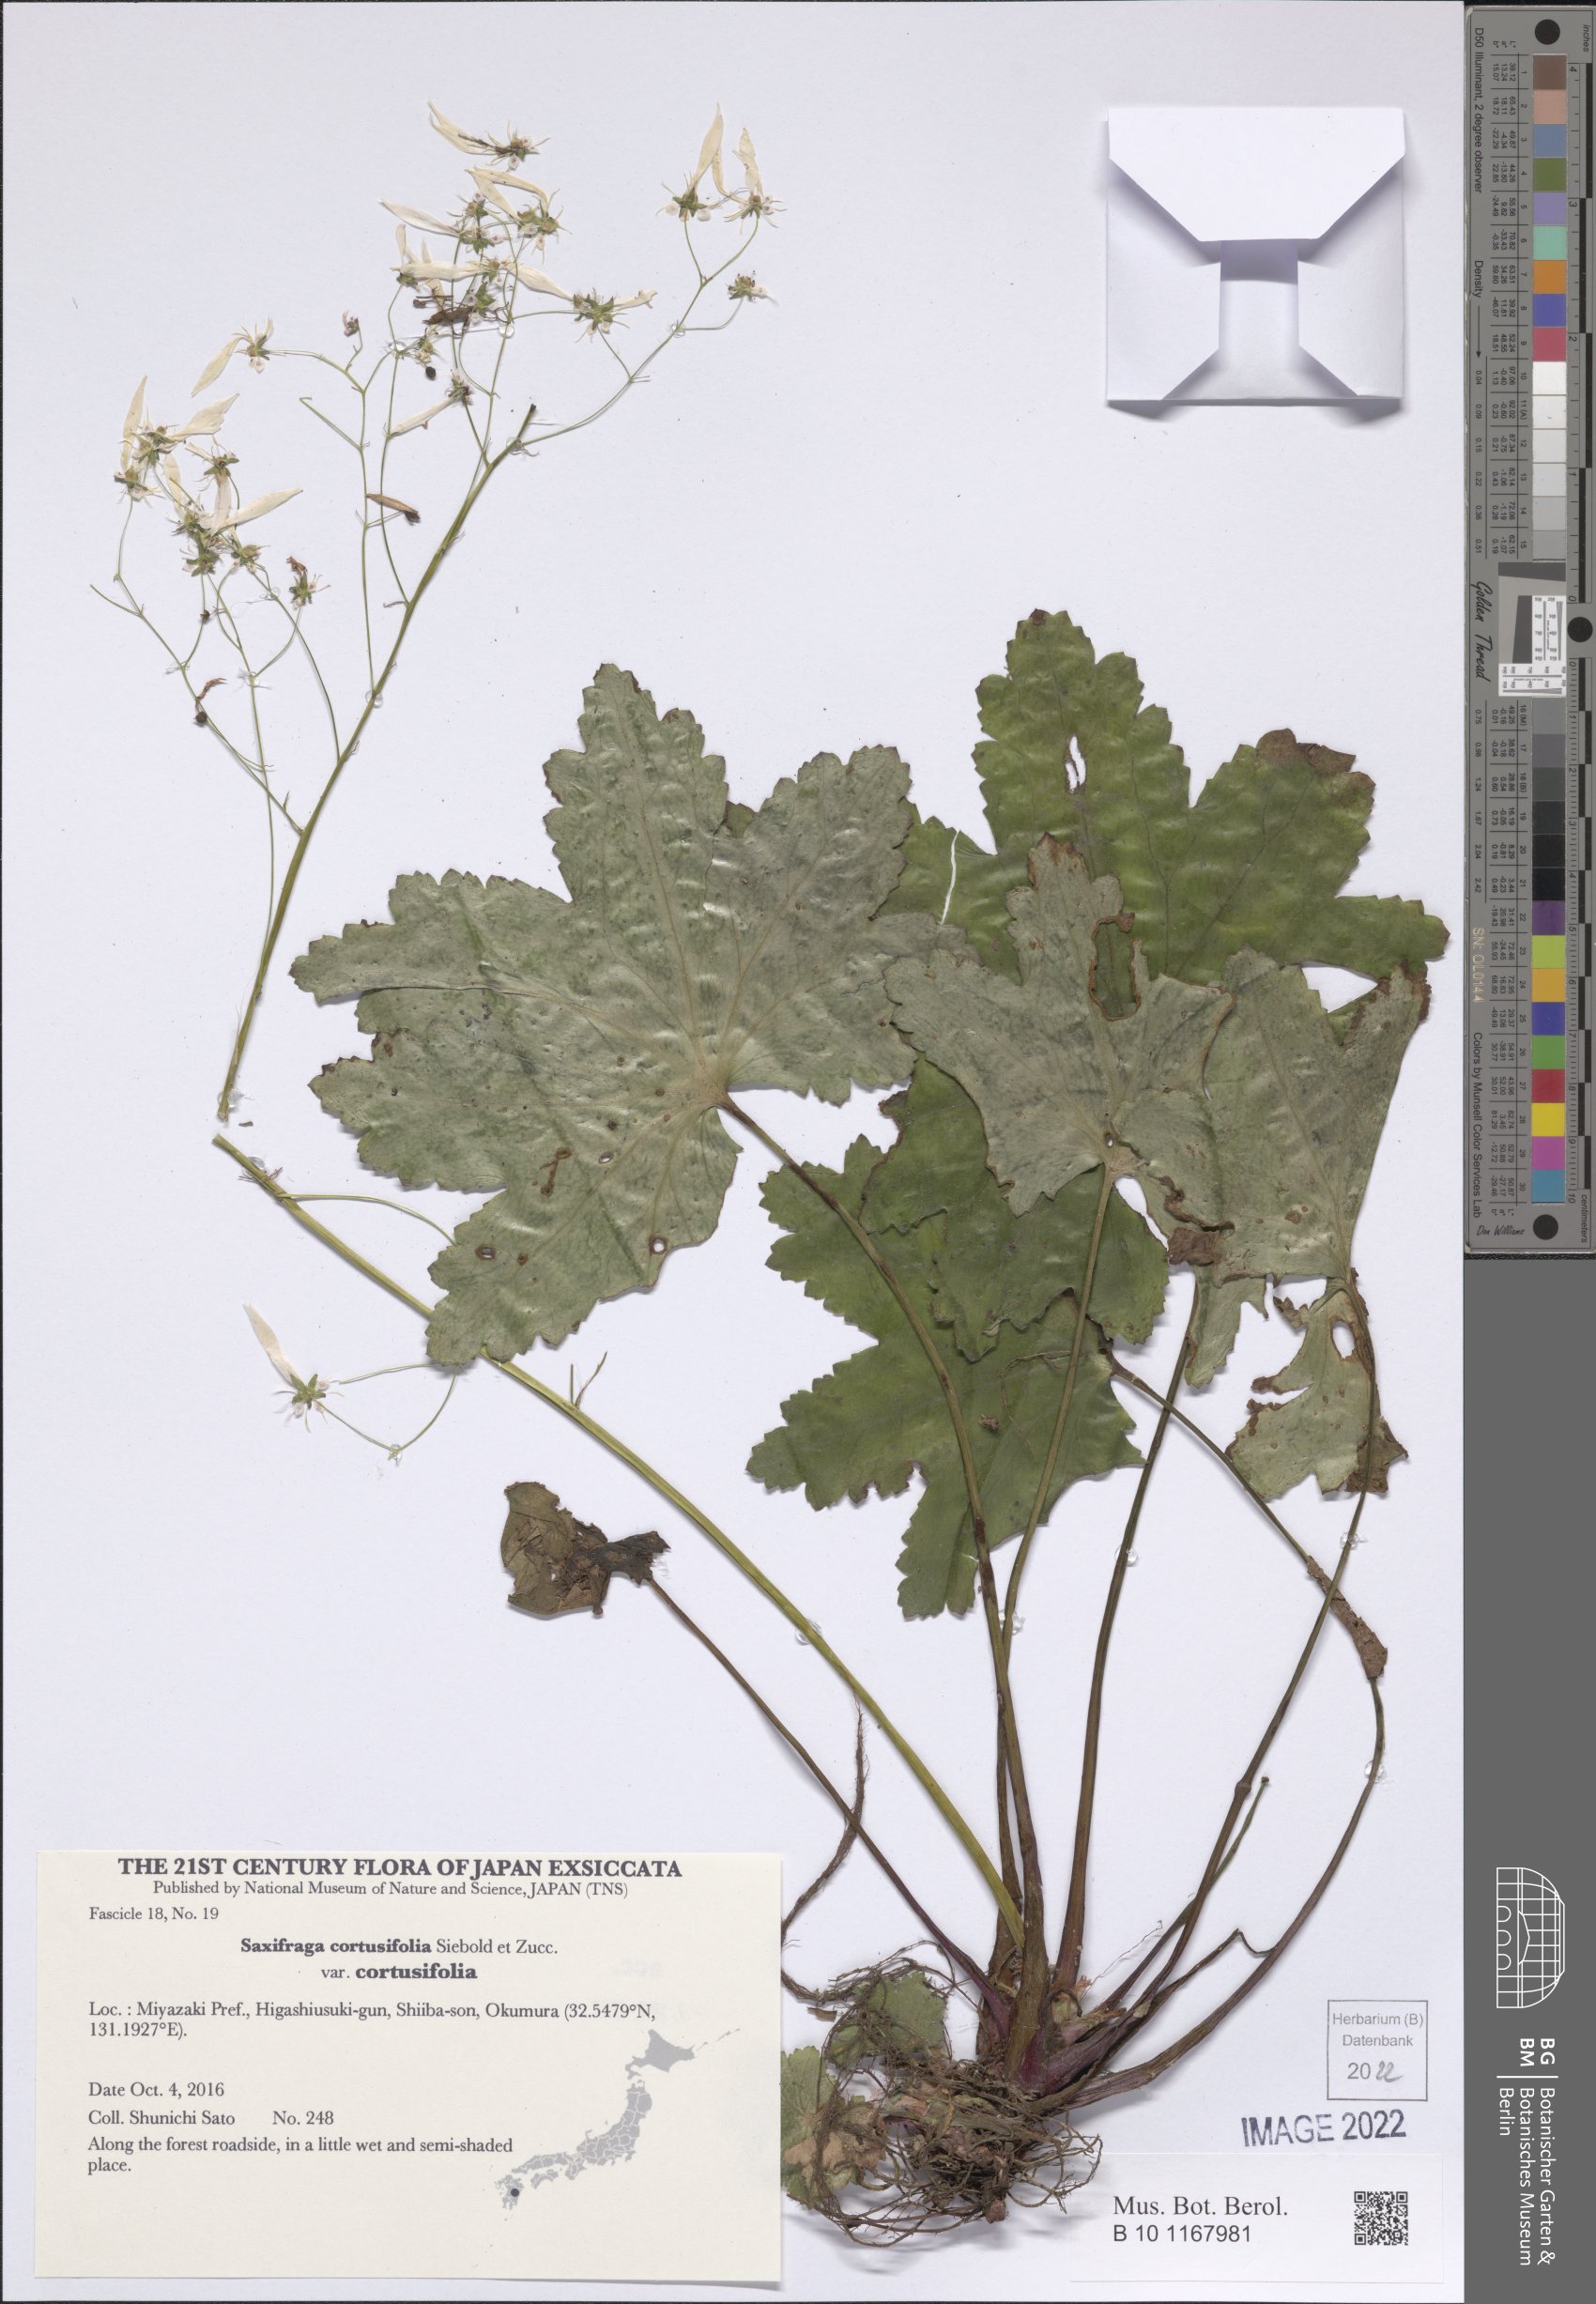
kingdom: Plantae
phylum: Tracheophyta
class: Magnoliopsida
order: Saxifragales
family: Saxifragaceae
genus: Saxifraga
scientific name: Saxifraga cortusifolia
